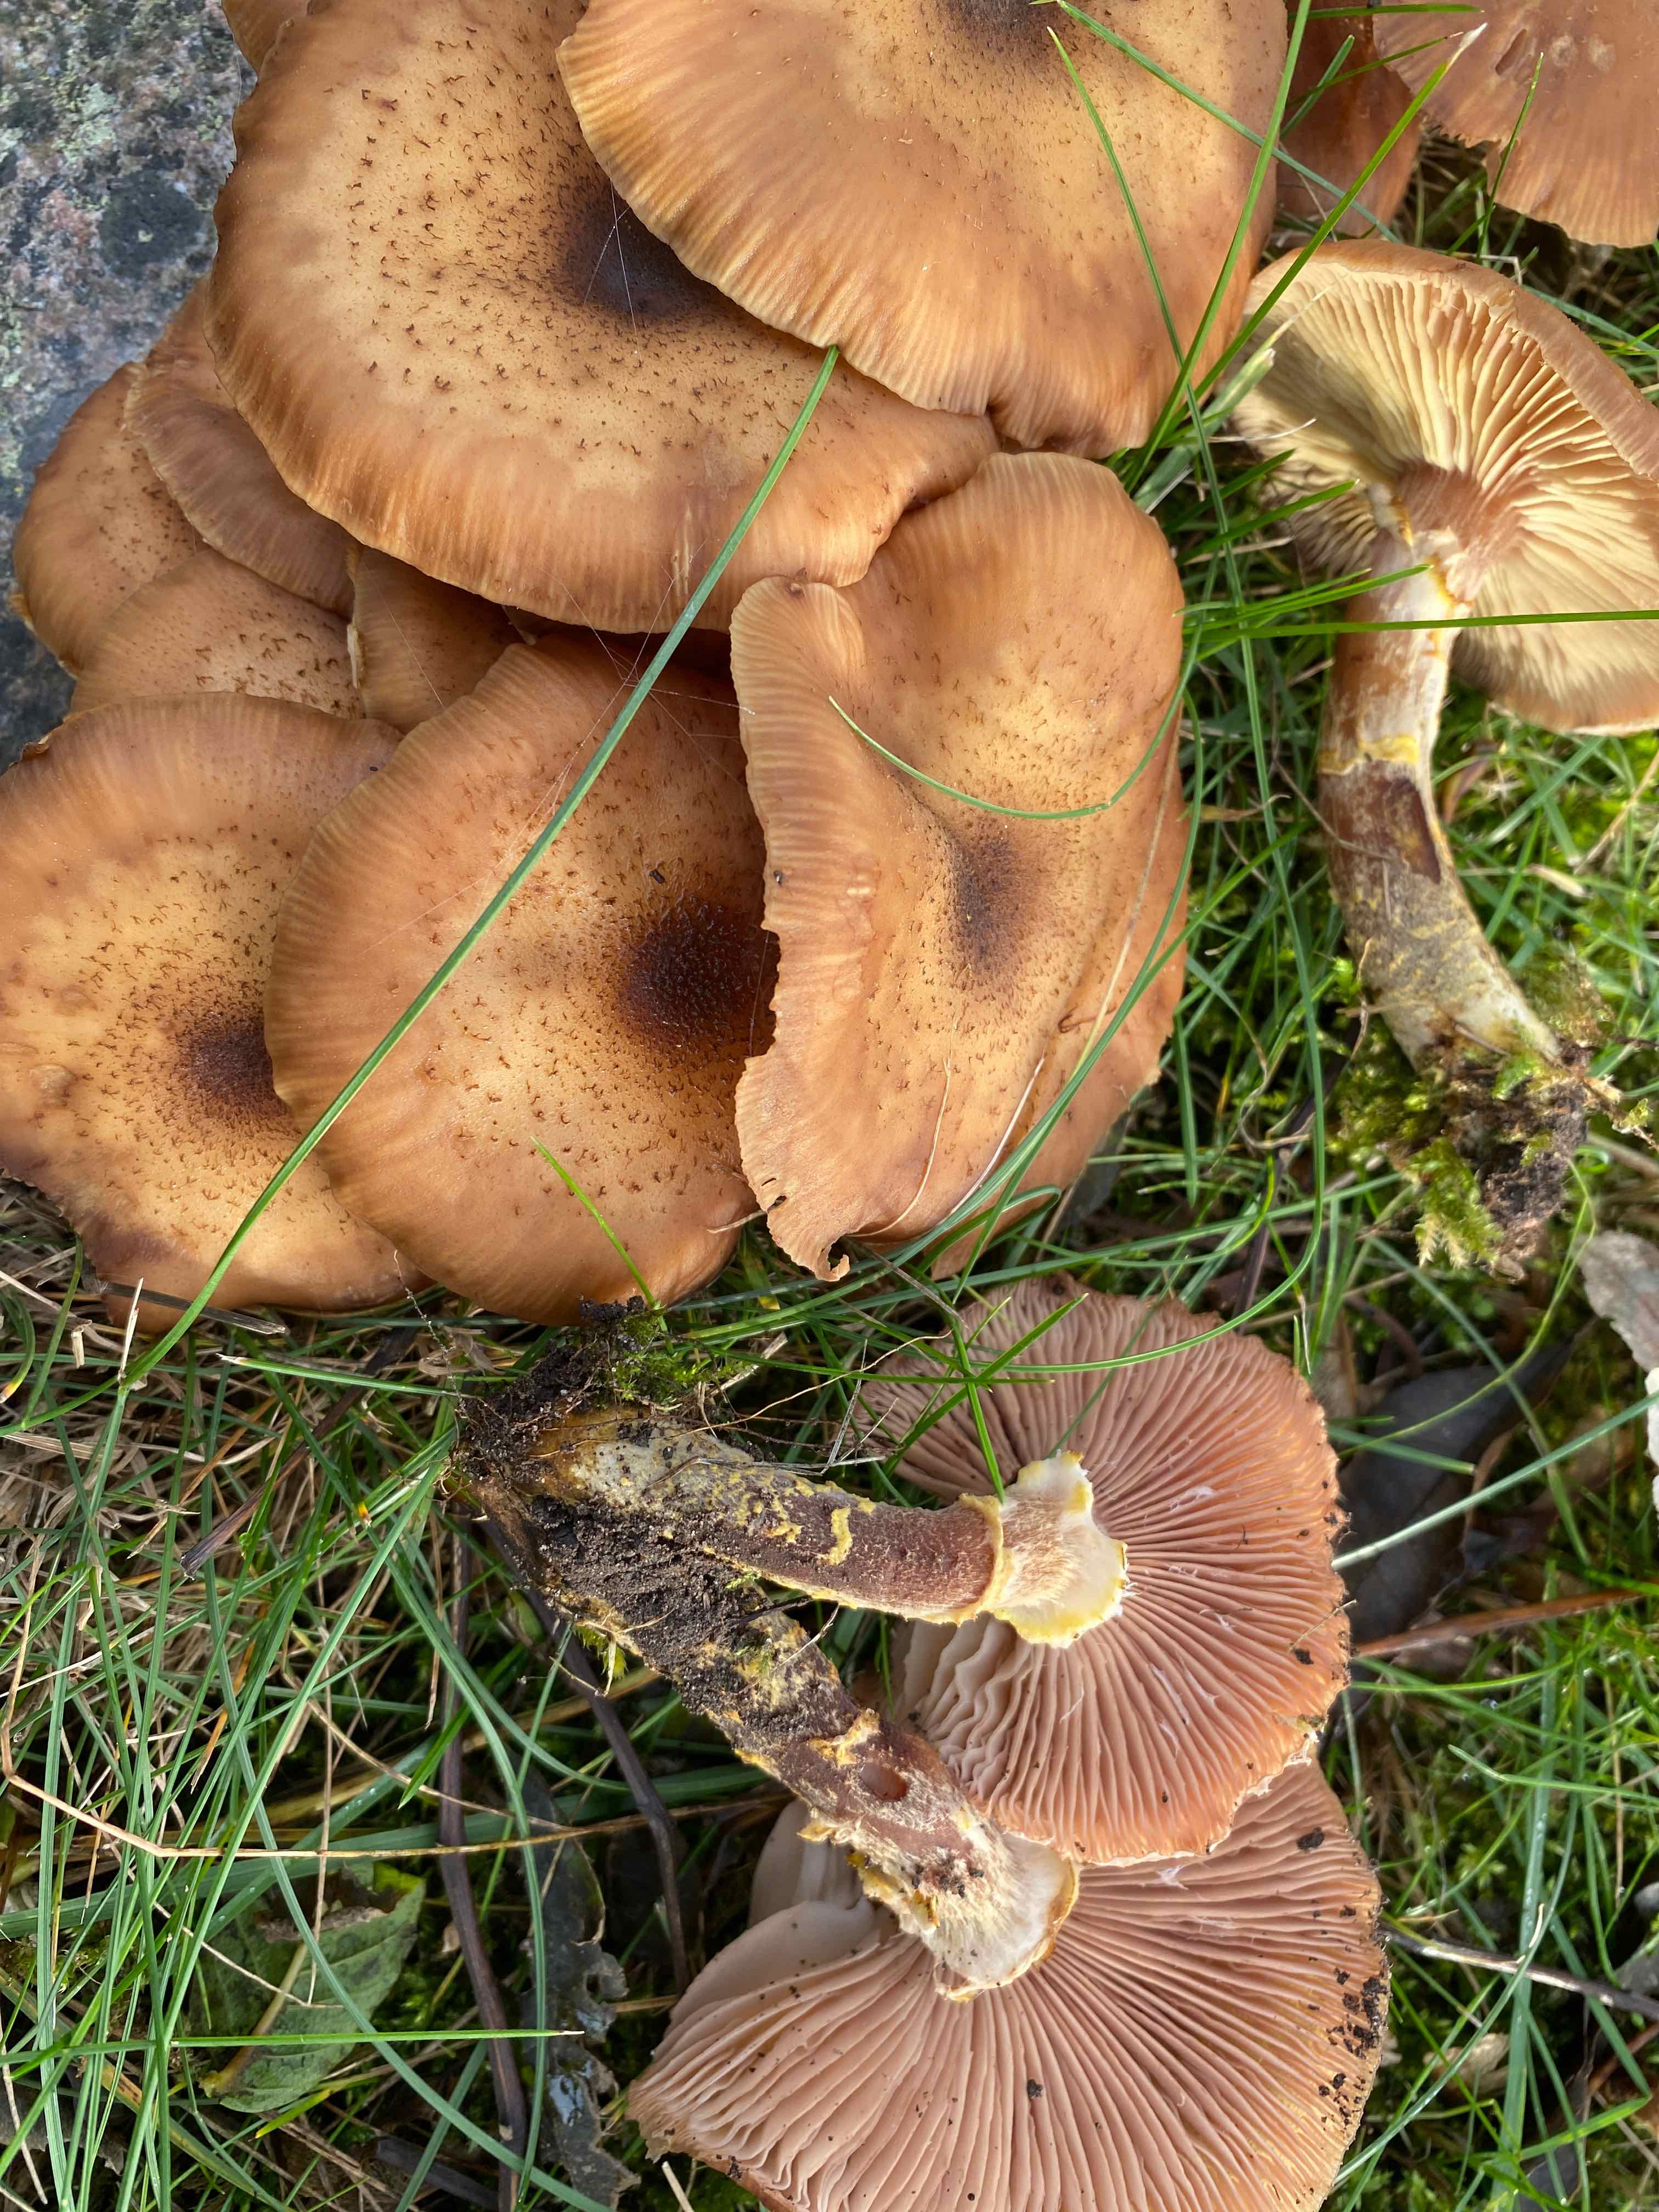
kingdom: Fungi
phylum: Basidiomycota
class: Agaricomycetes
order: Agaricales
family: Physalacriaceae
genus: Armillaria
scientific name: Armillaria lutea
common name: køllestokket honningsvamp
